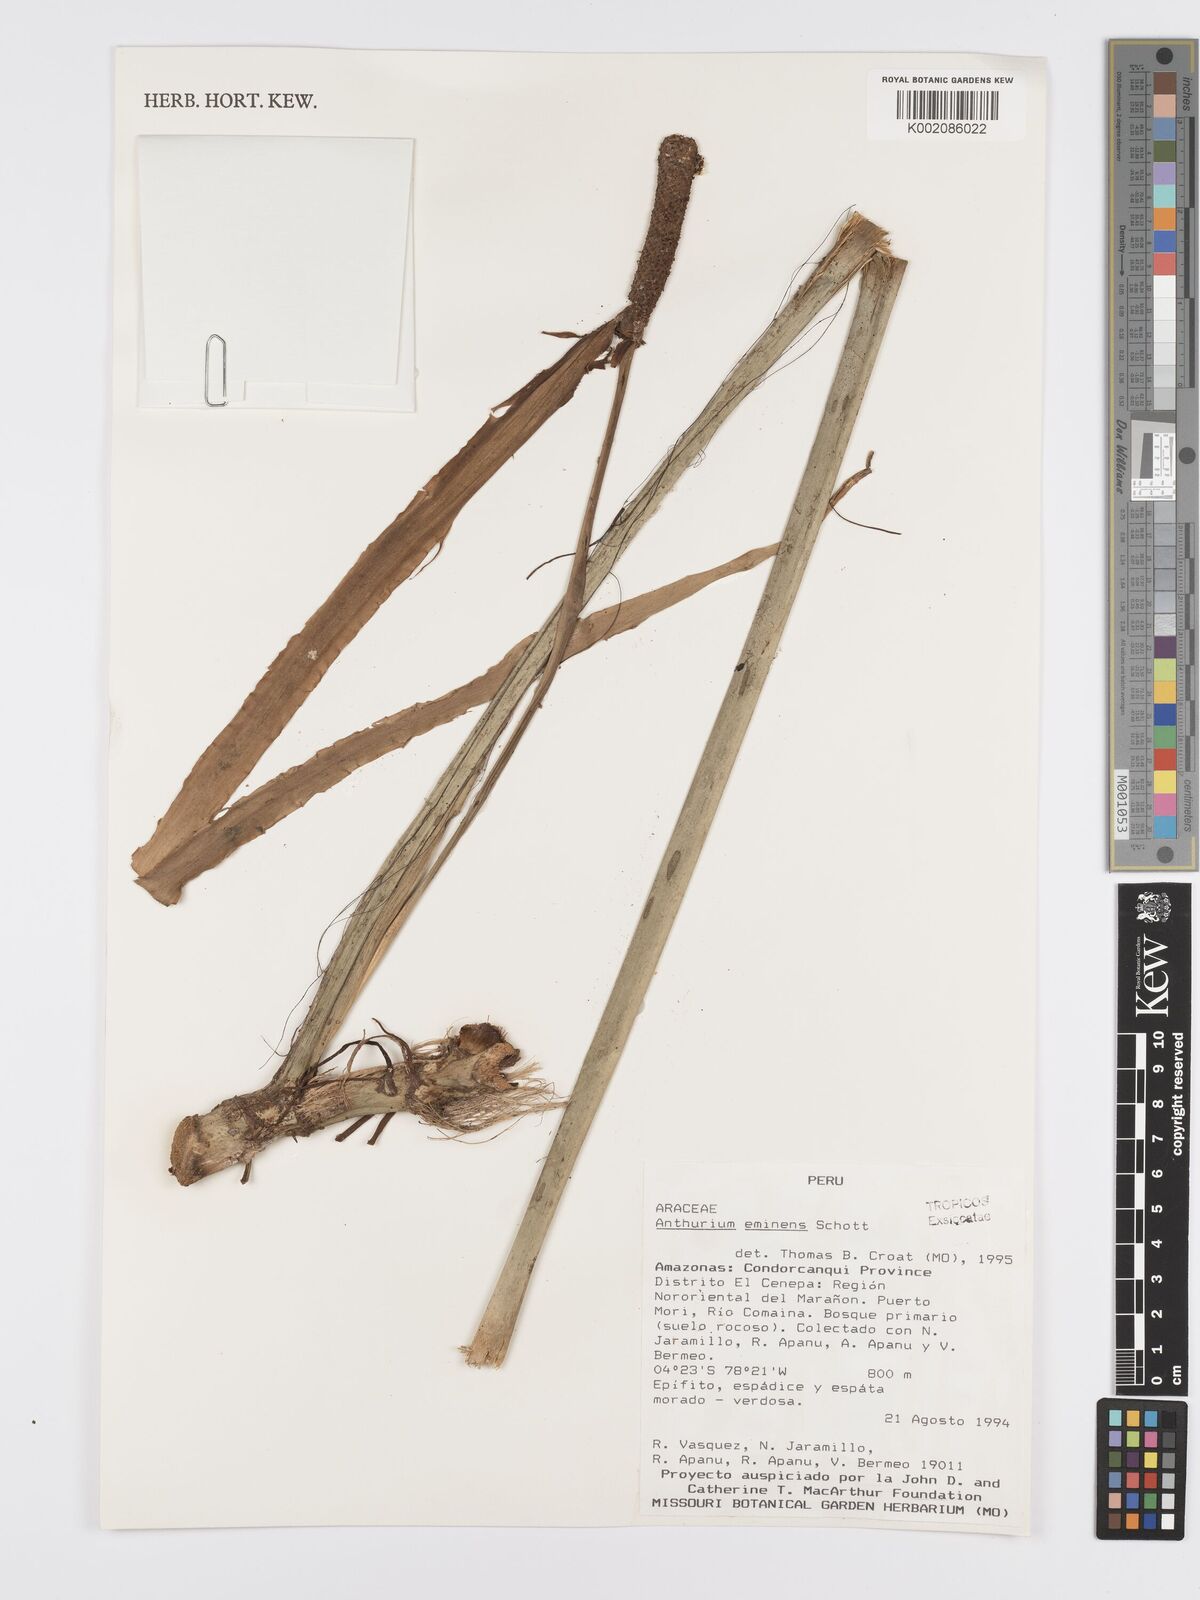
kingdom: Plantae
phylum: Tracheophyta
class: Liliopsida
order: Alismatales
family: Araceae
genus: Anthurium
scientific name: Anthurium eminens
